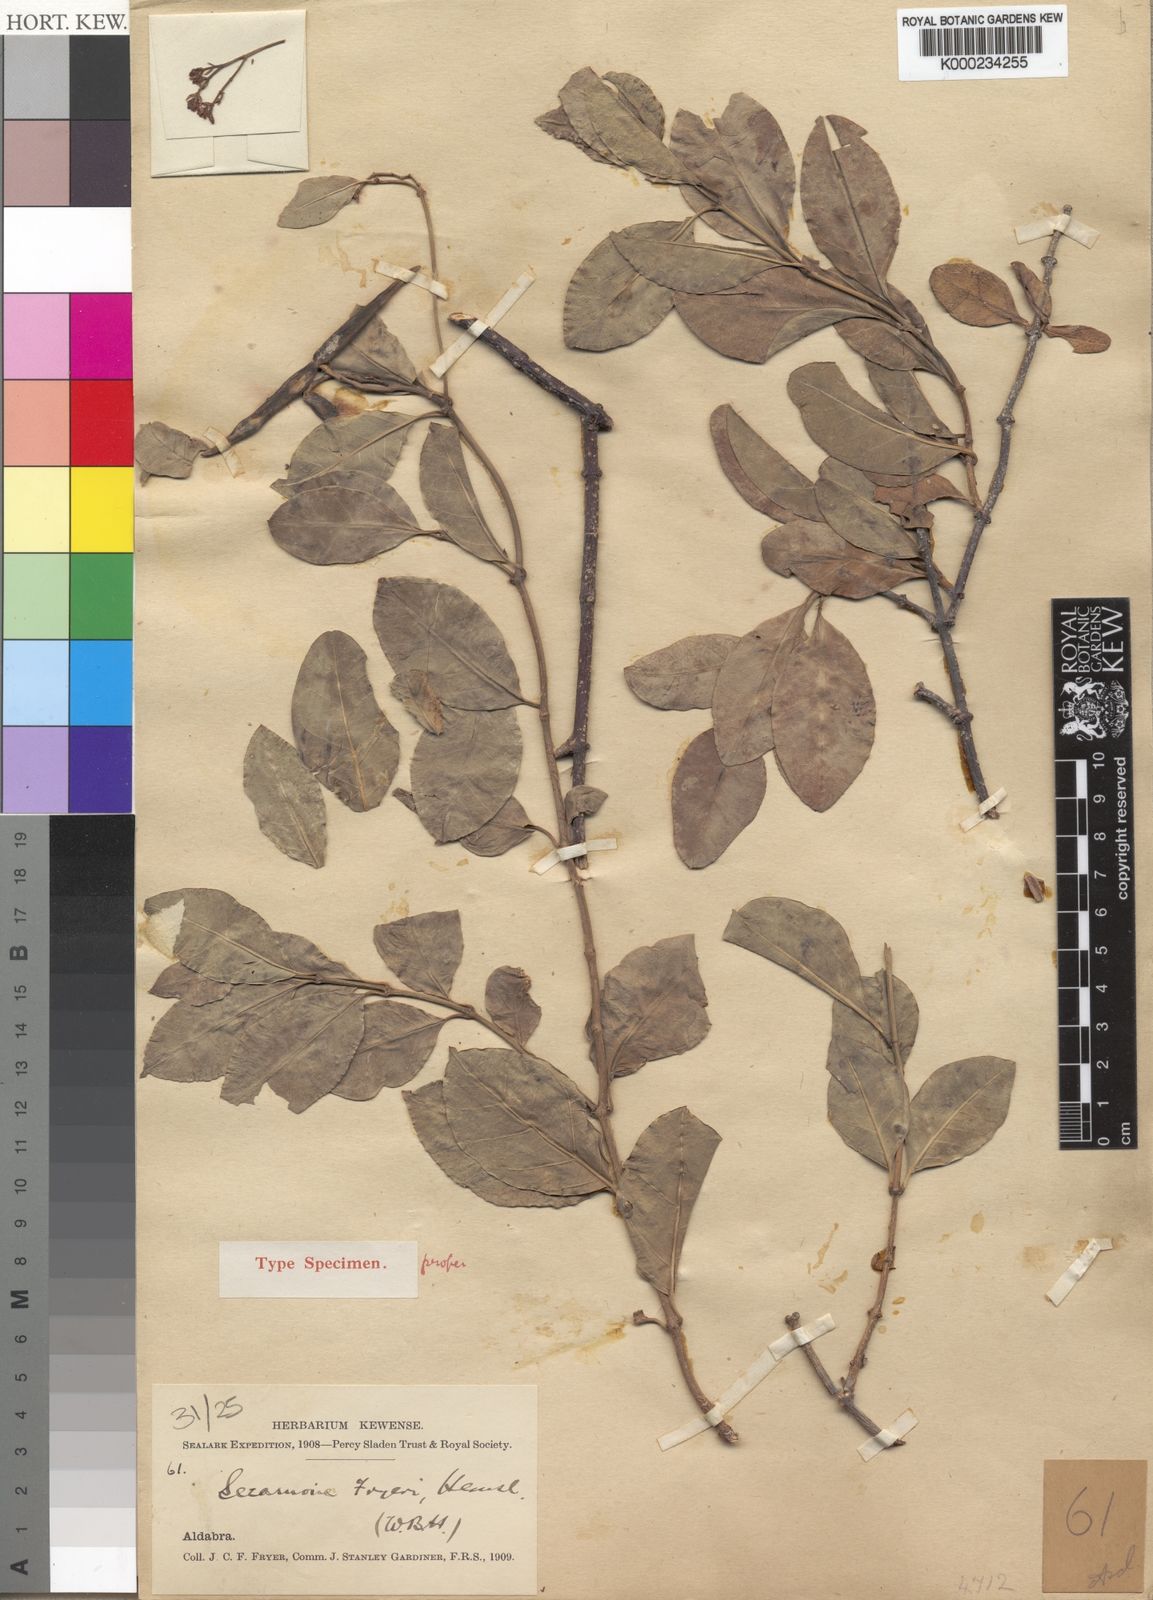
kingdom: Plantae
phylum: Tracheophyta
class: Magnoliopsida
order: Gentianales
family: Apocynaceae
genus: Secamone
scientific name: Secamone pachystigma
